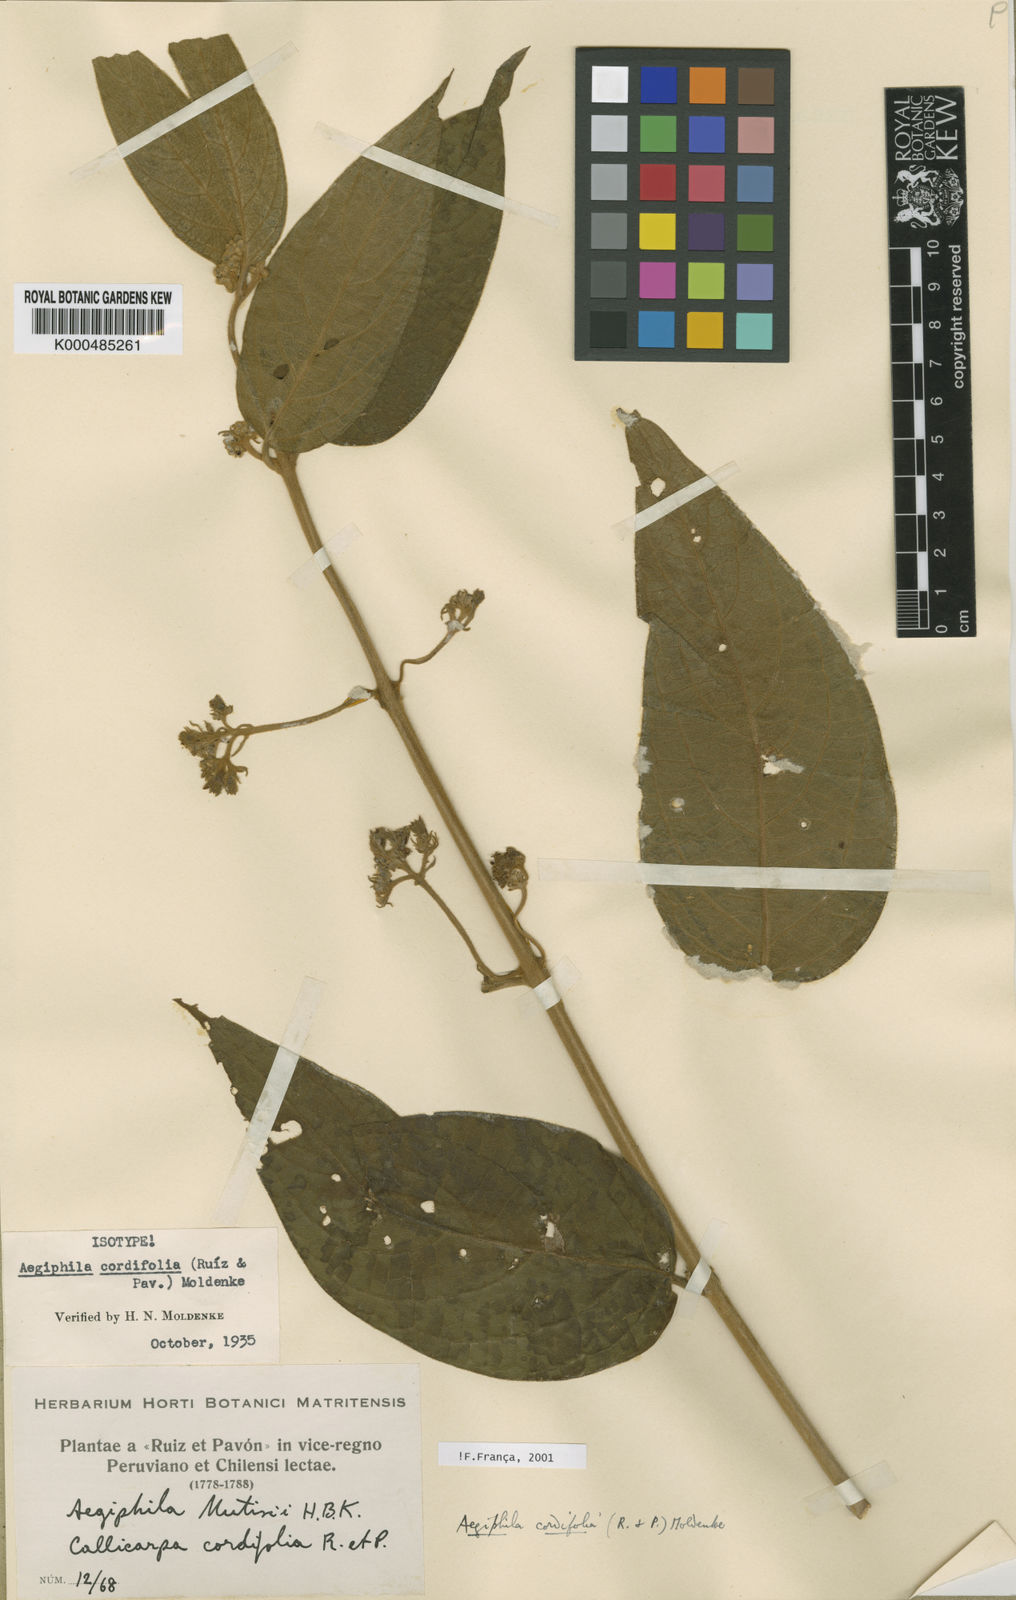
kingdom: Plantae
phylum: Tracheophyta
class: Magnoliopsida
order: Lamiales
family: Lamiaceae
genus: Aegiphila
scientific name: Aegiphila cordifolia
